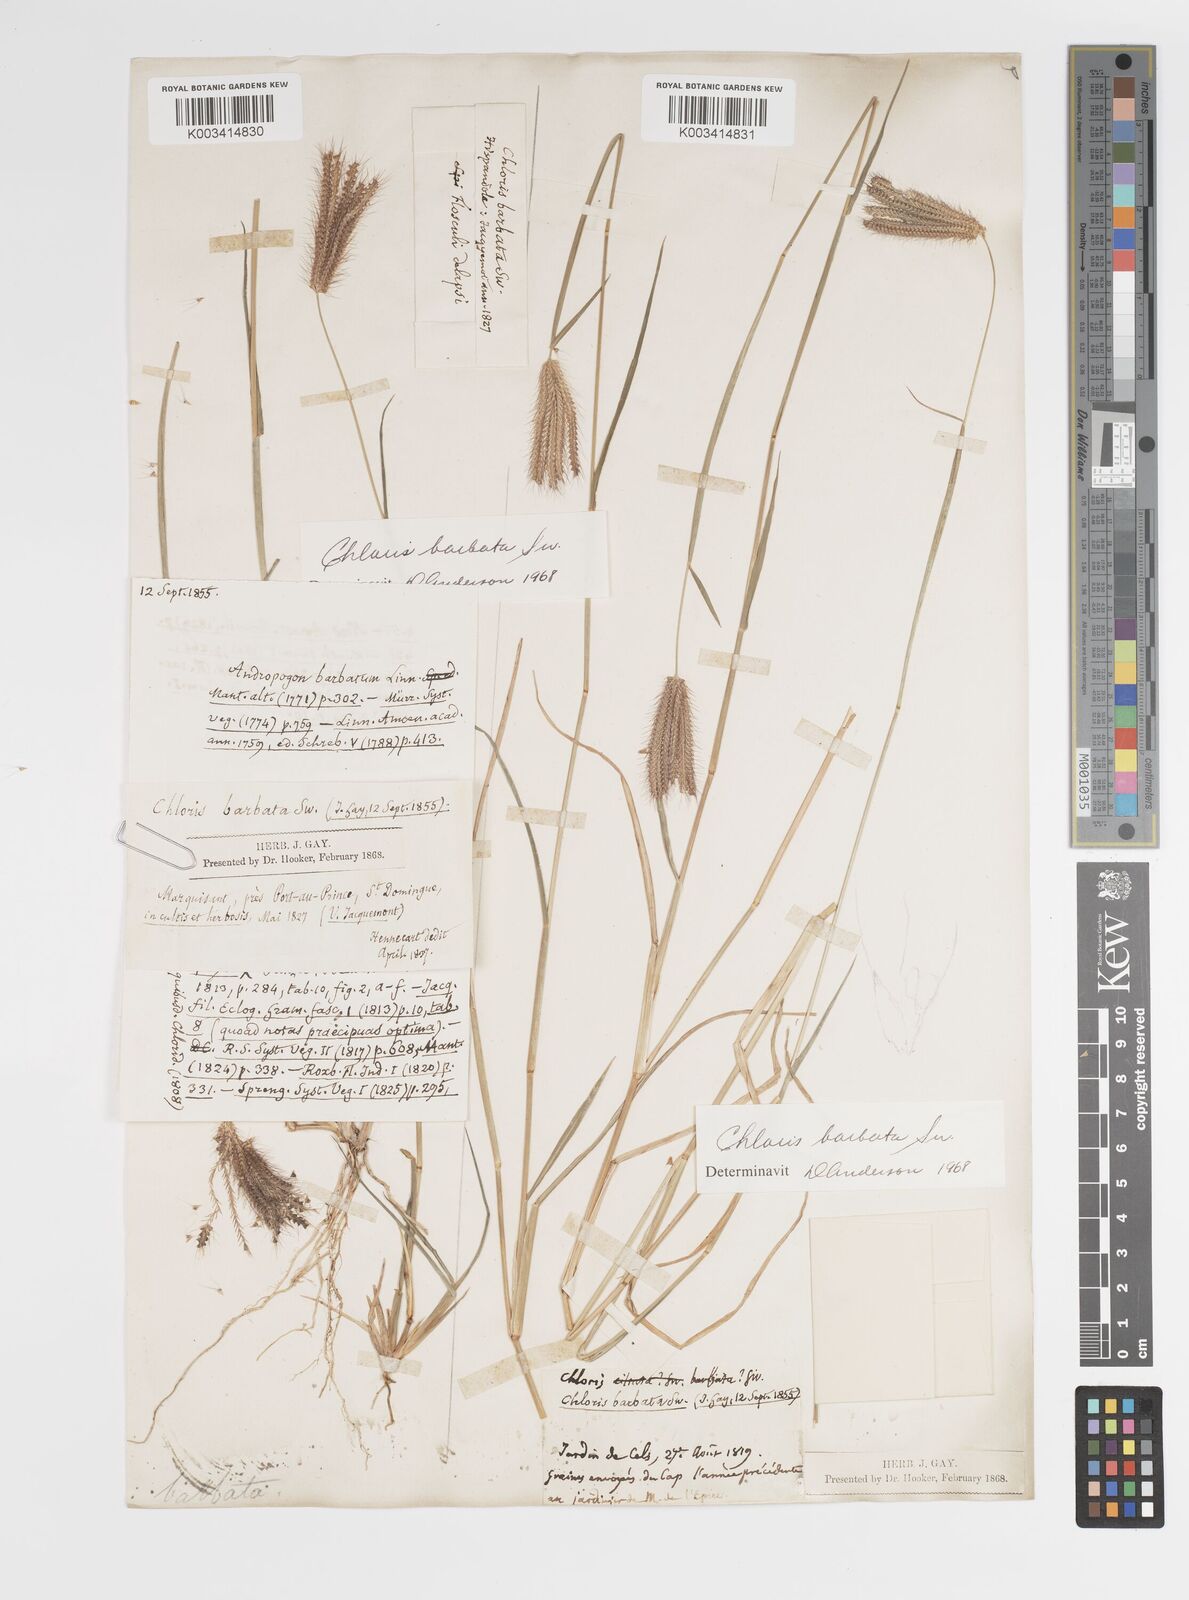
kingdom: Plantae
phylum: Tracheophyta
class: Liliopsida
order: Poales
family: Poaceae
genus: Chloris
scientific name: Chloris barbata
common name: Swollen fingergrass
